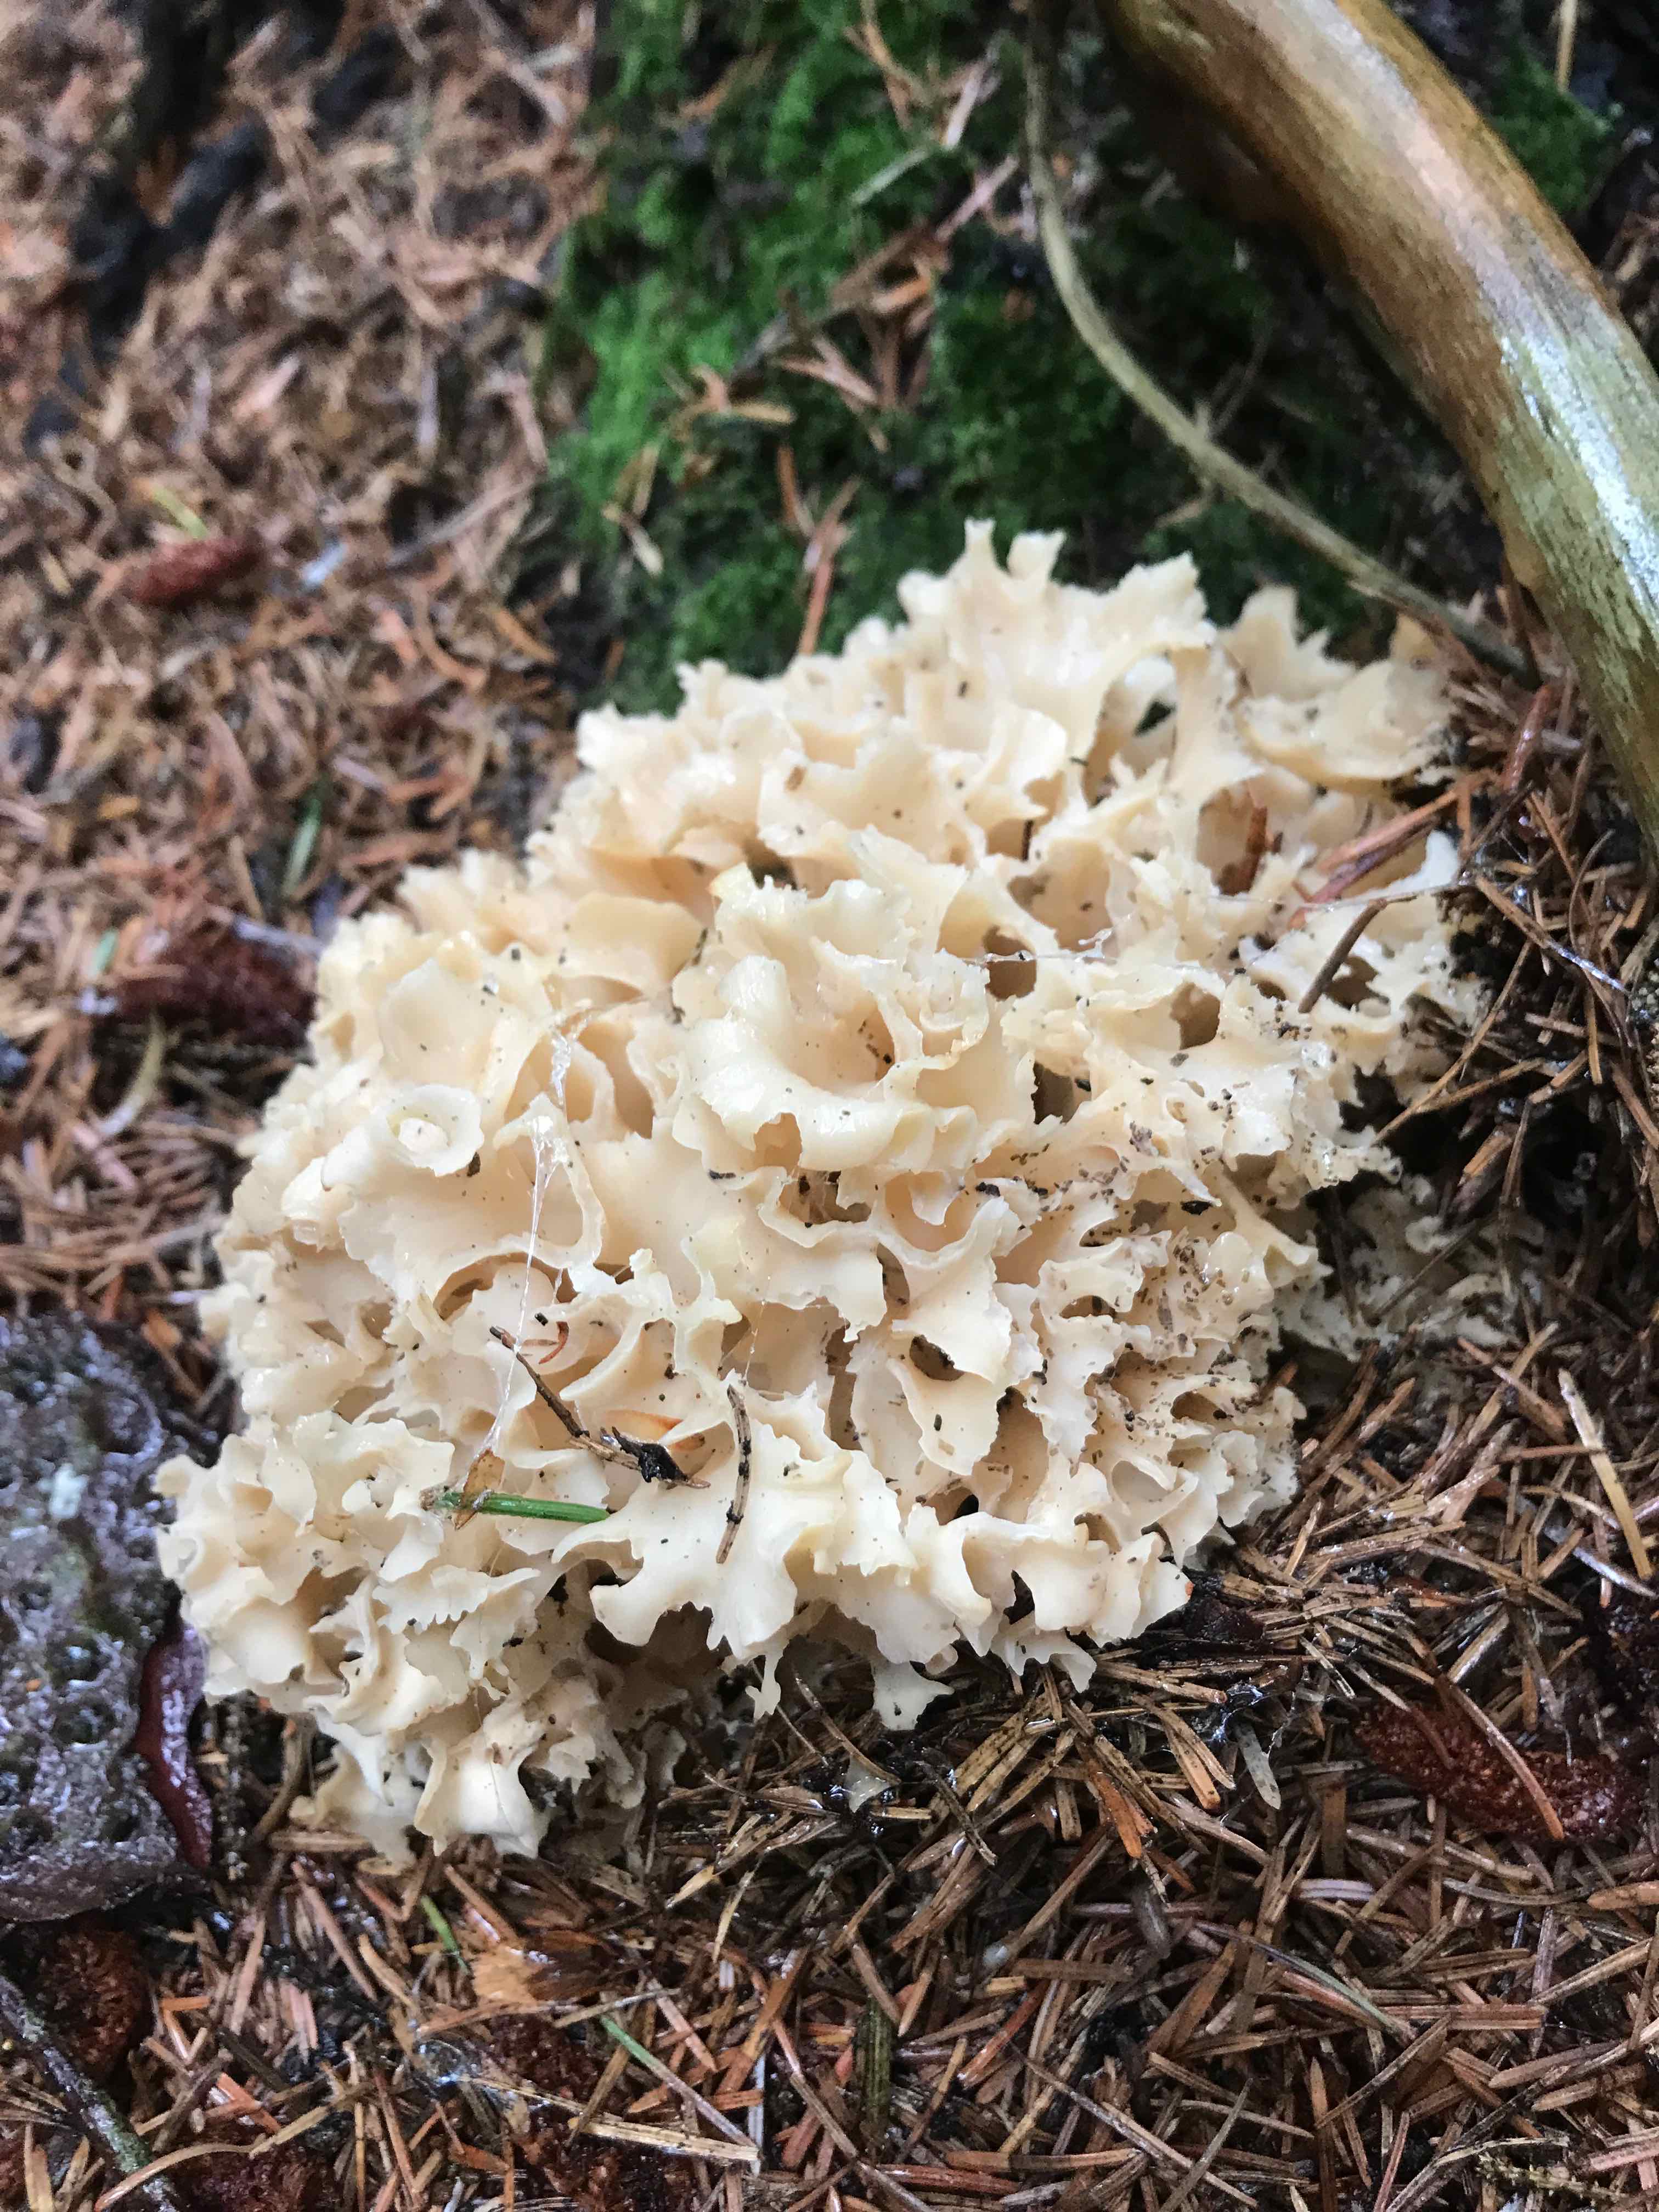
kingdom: Fungi
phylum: Basidiomycota
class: Agaricomycetes
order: Polyporales
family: Sparassidaceae
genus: Sparassis
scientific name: Sparassis crispa
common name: kruset blomkålssvamp
